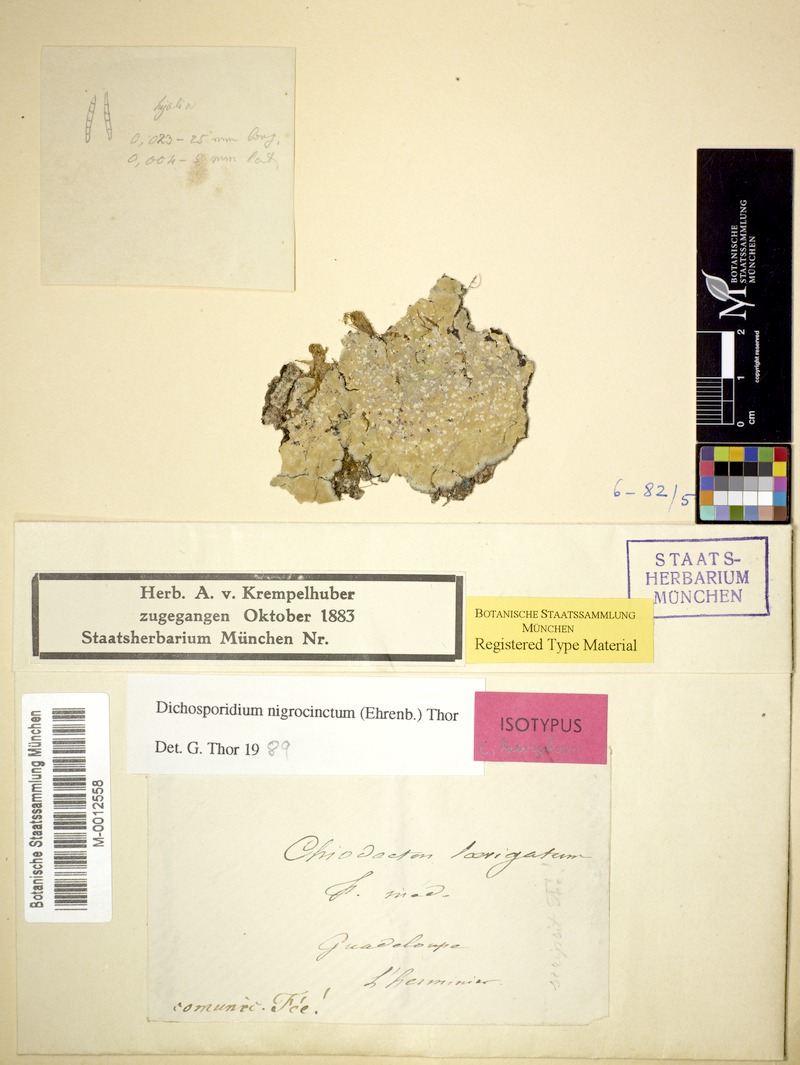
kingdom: Fungi
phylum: Ascomycota
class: Arthoniomycetes
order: Arthoniales
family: Roccellaceae
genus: Dichosporidium
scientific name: Dichosporidium nigrocinctum
